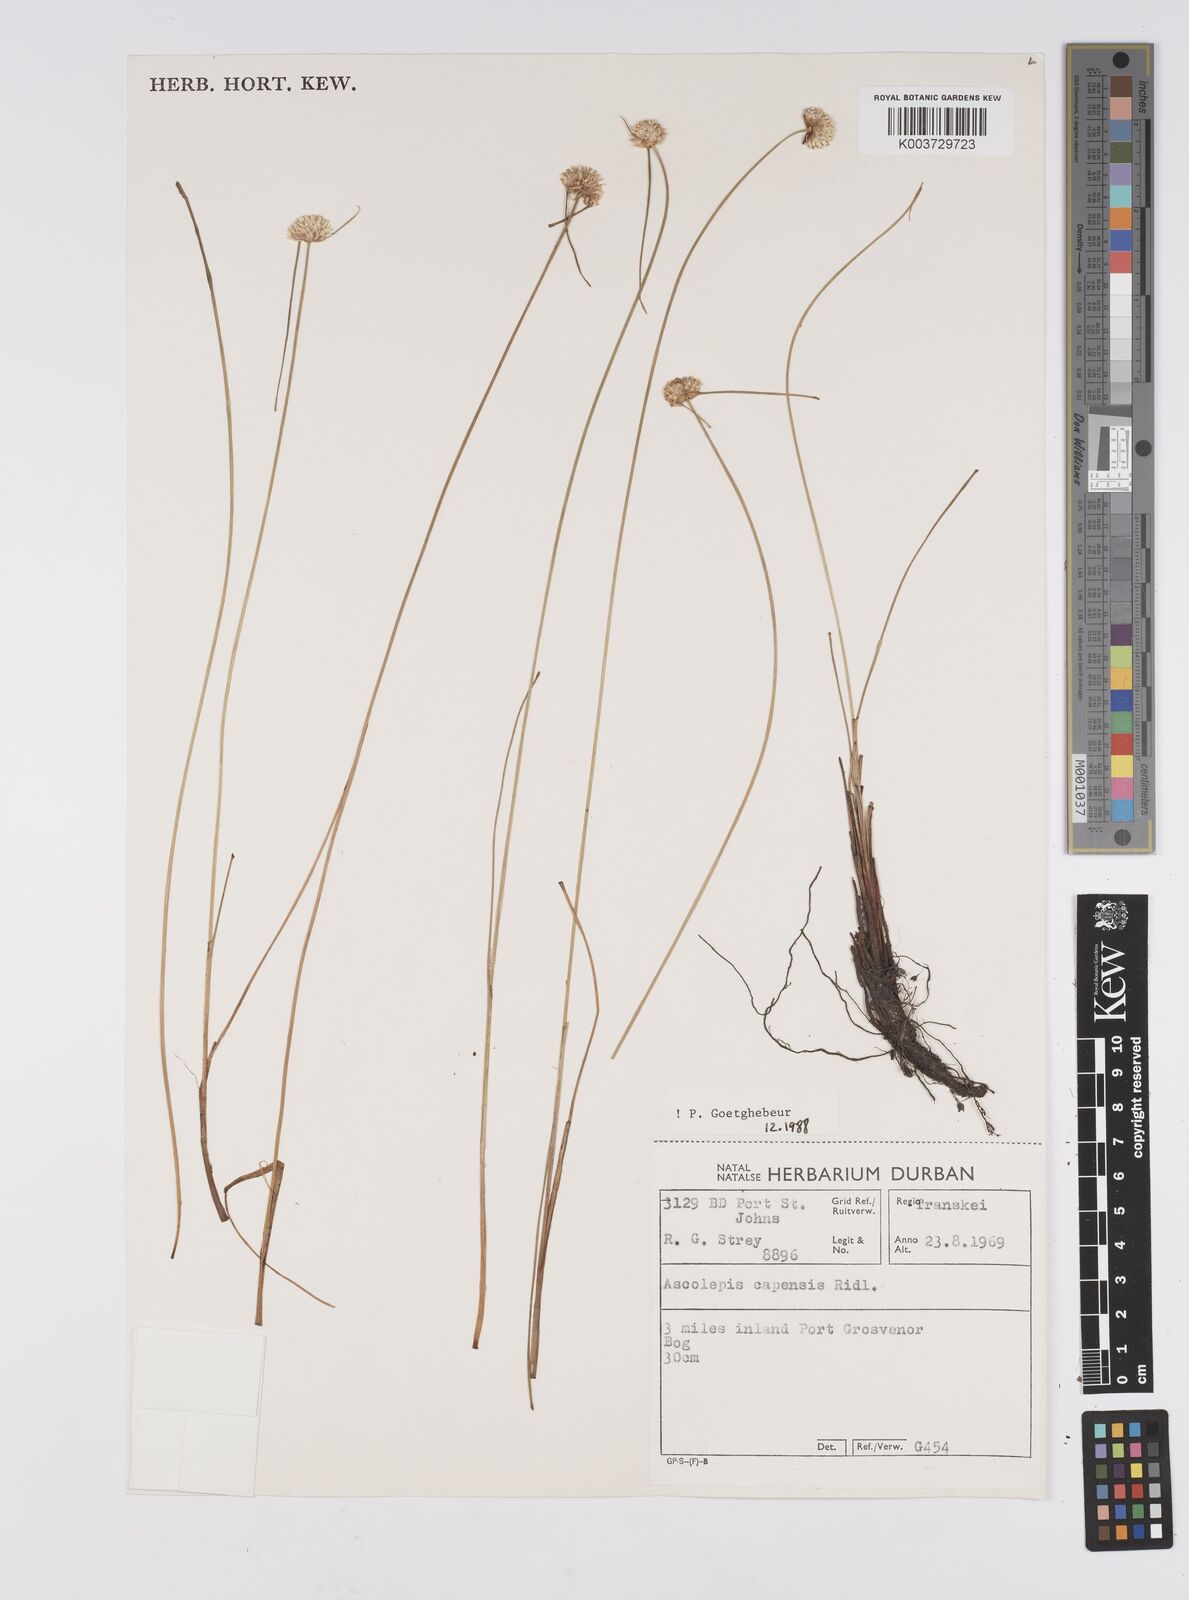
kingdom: Plantae
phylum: Tracheophyta
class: Liliopsida
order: Poales
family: Cyperaceae
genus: Cyperus
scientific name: Cyperus capensis
